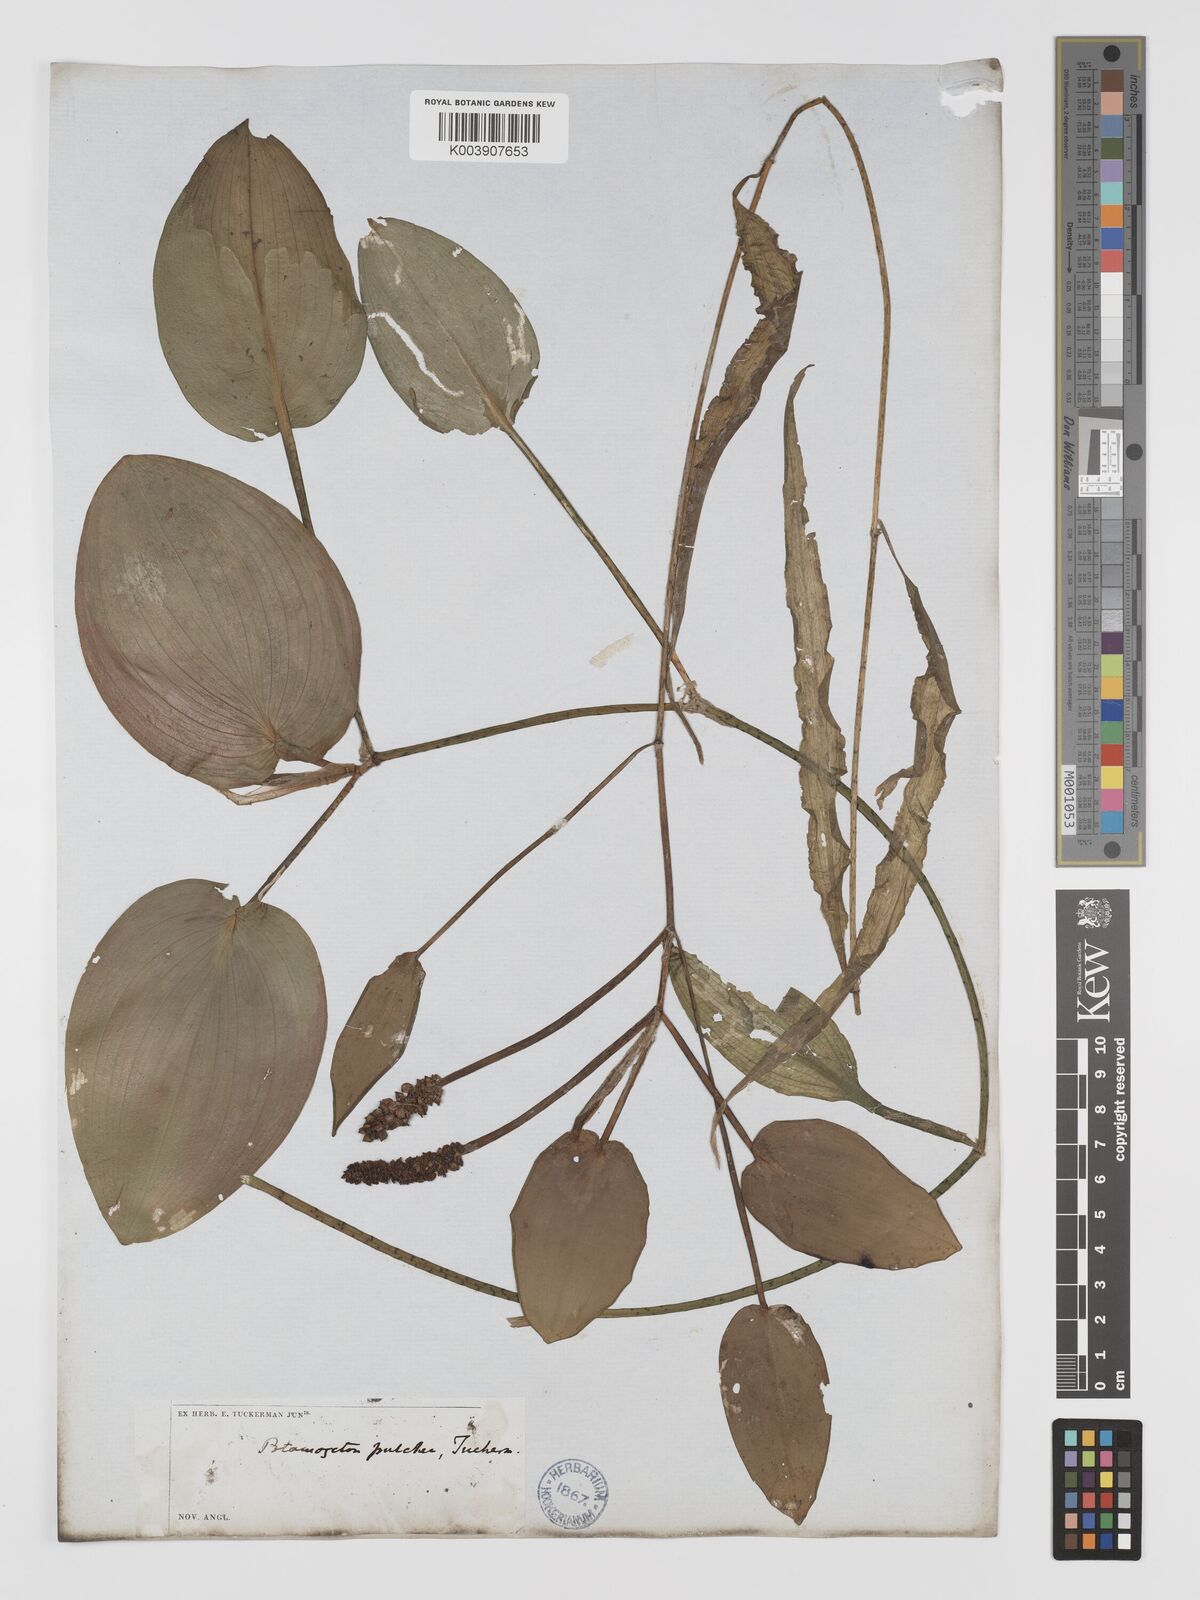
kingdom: Plantae
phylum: Tracheophyta
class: Liliopsida
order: Alismatales
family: Potamogetonaceae
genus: Potamogeton
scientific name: Potamogeton pulcher
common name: Heart-leaved pondweed
